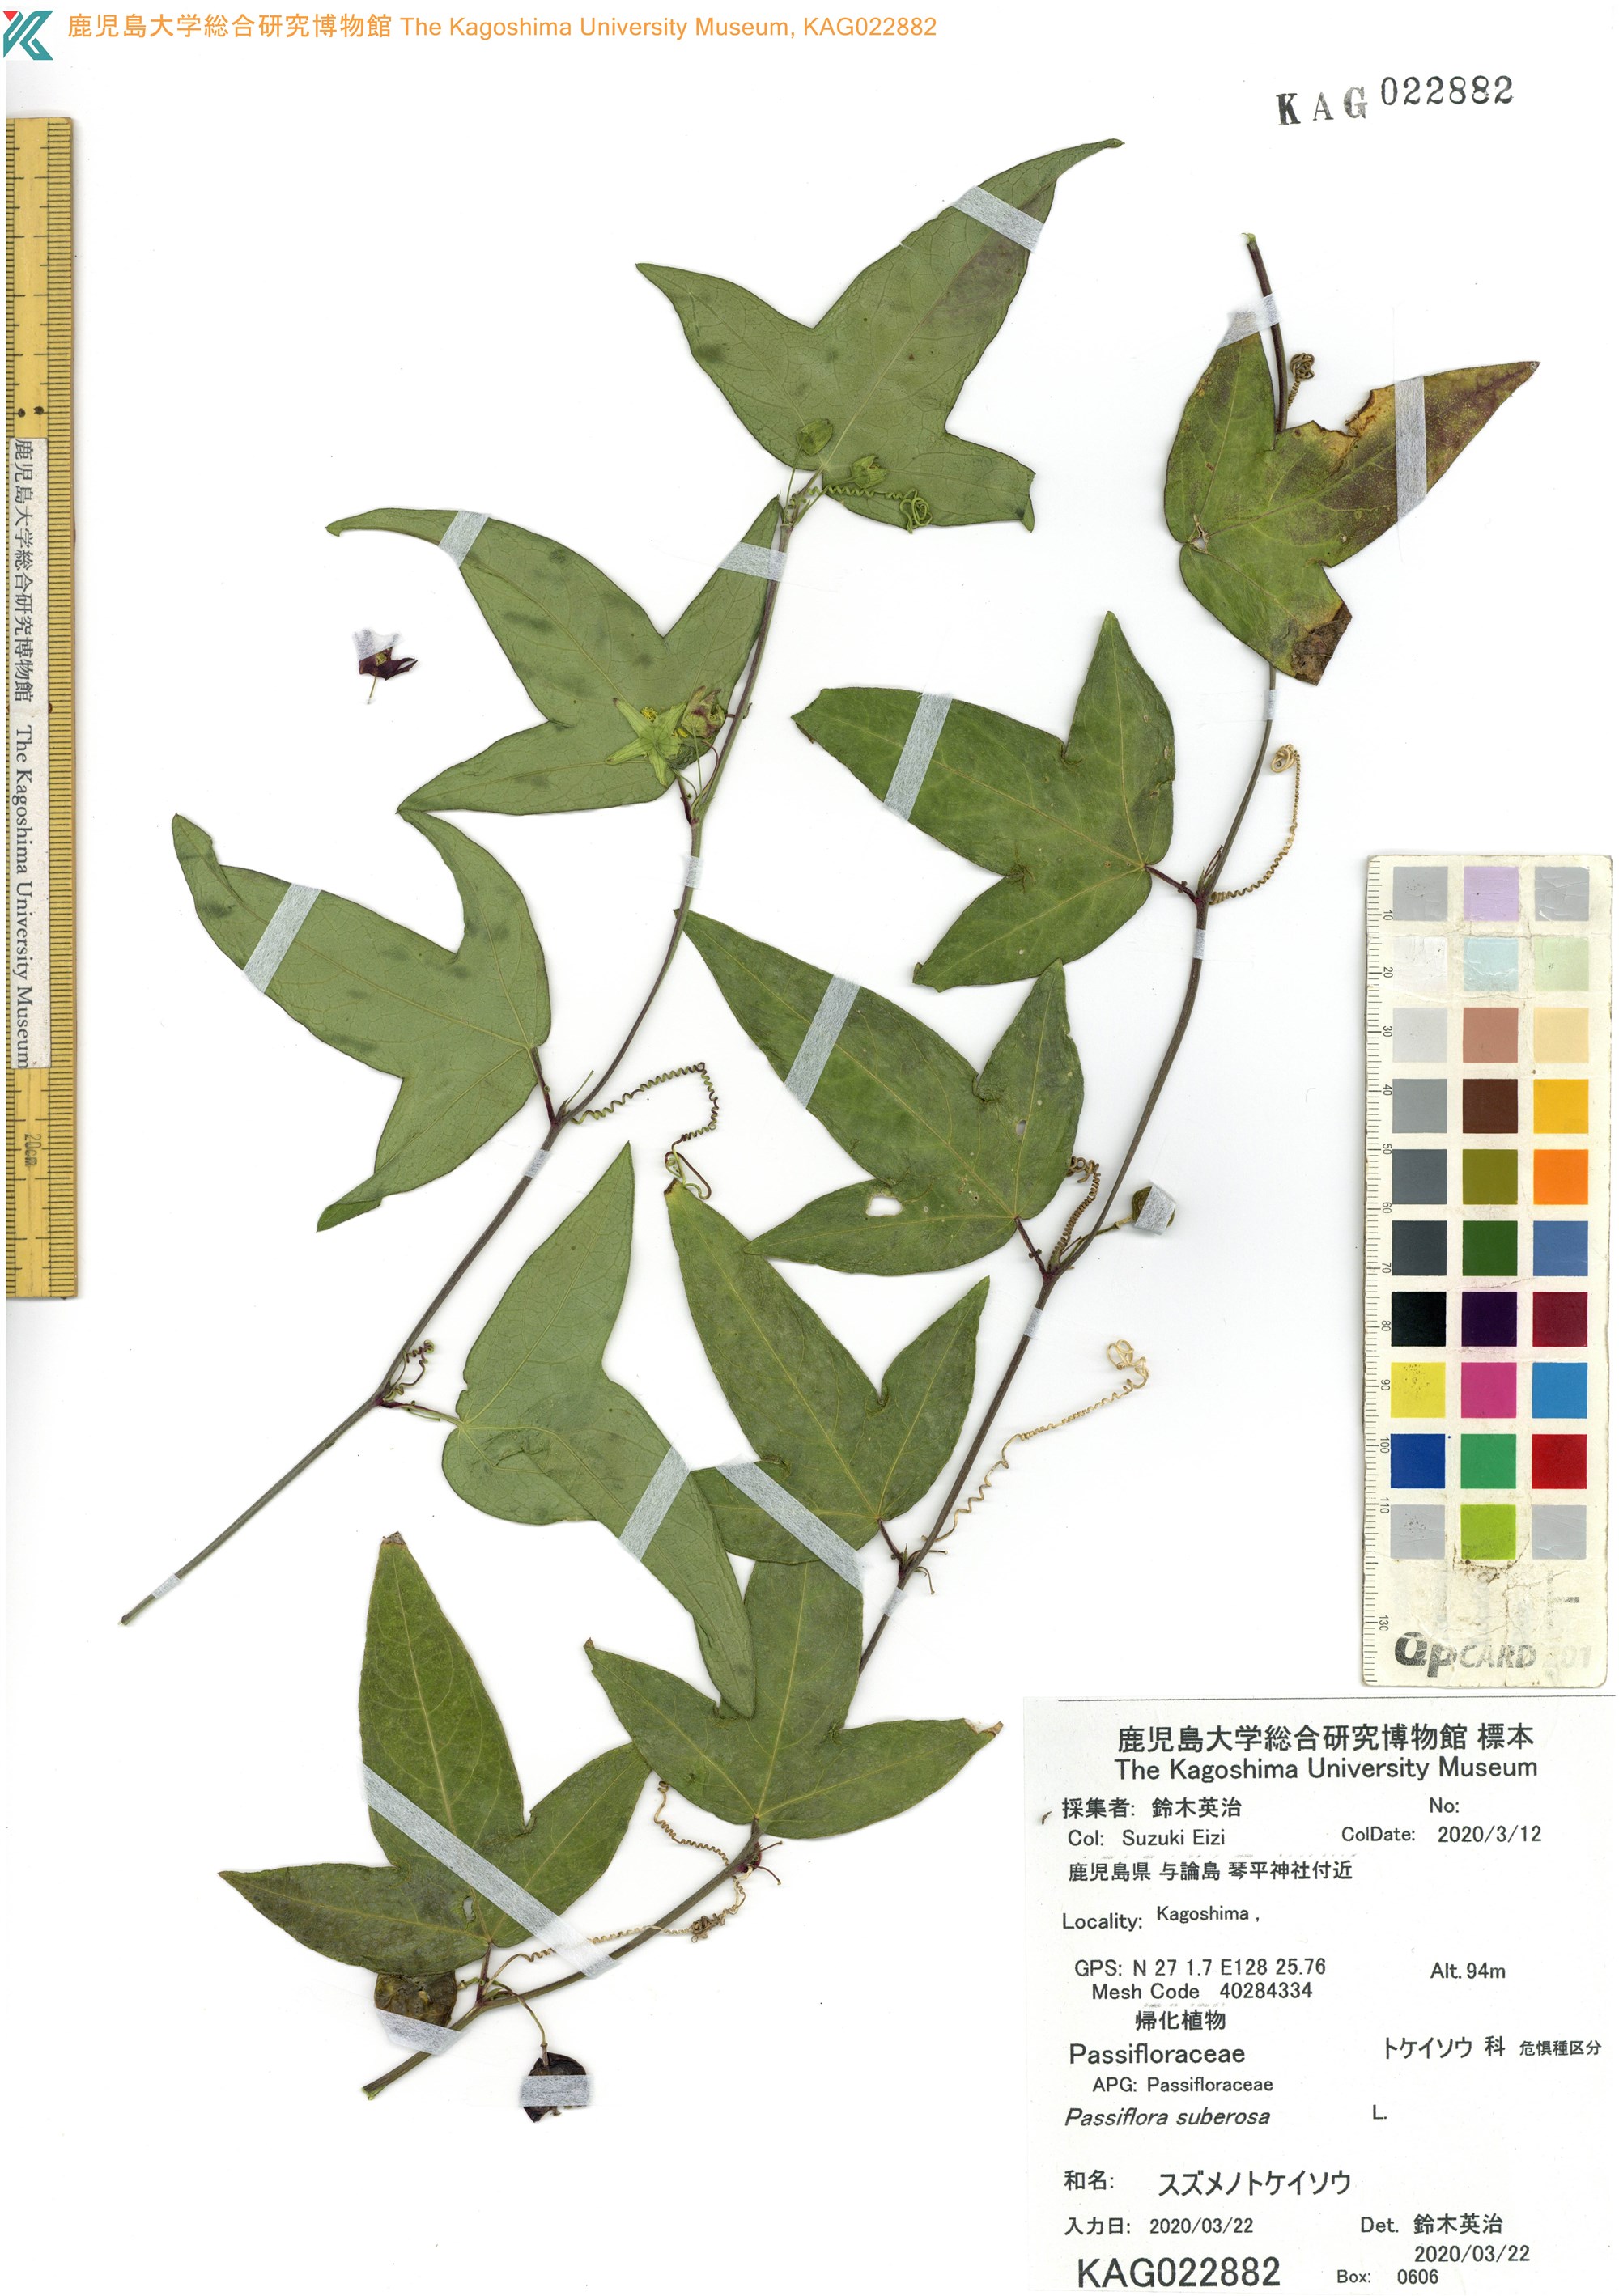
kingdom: Plantae
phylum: Tracheophyta
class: Magnoliopsida
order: Malpighiales
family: Passifloraceae
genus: Passiflora
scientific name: Passiflora suberosa
